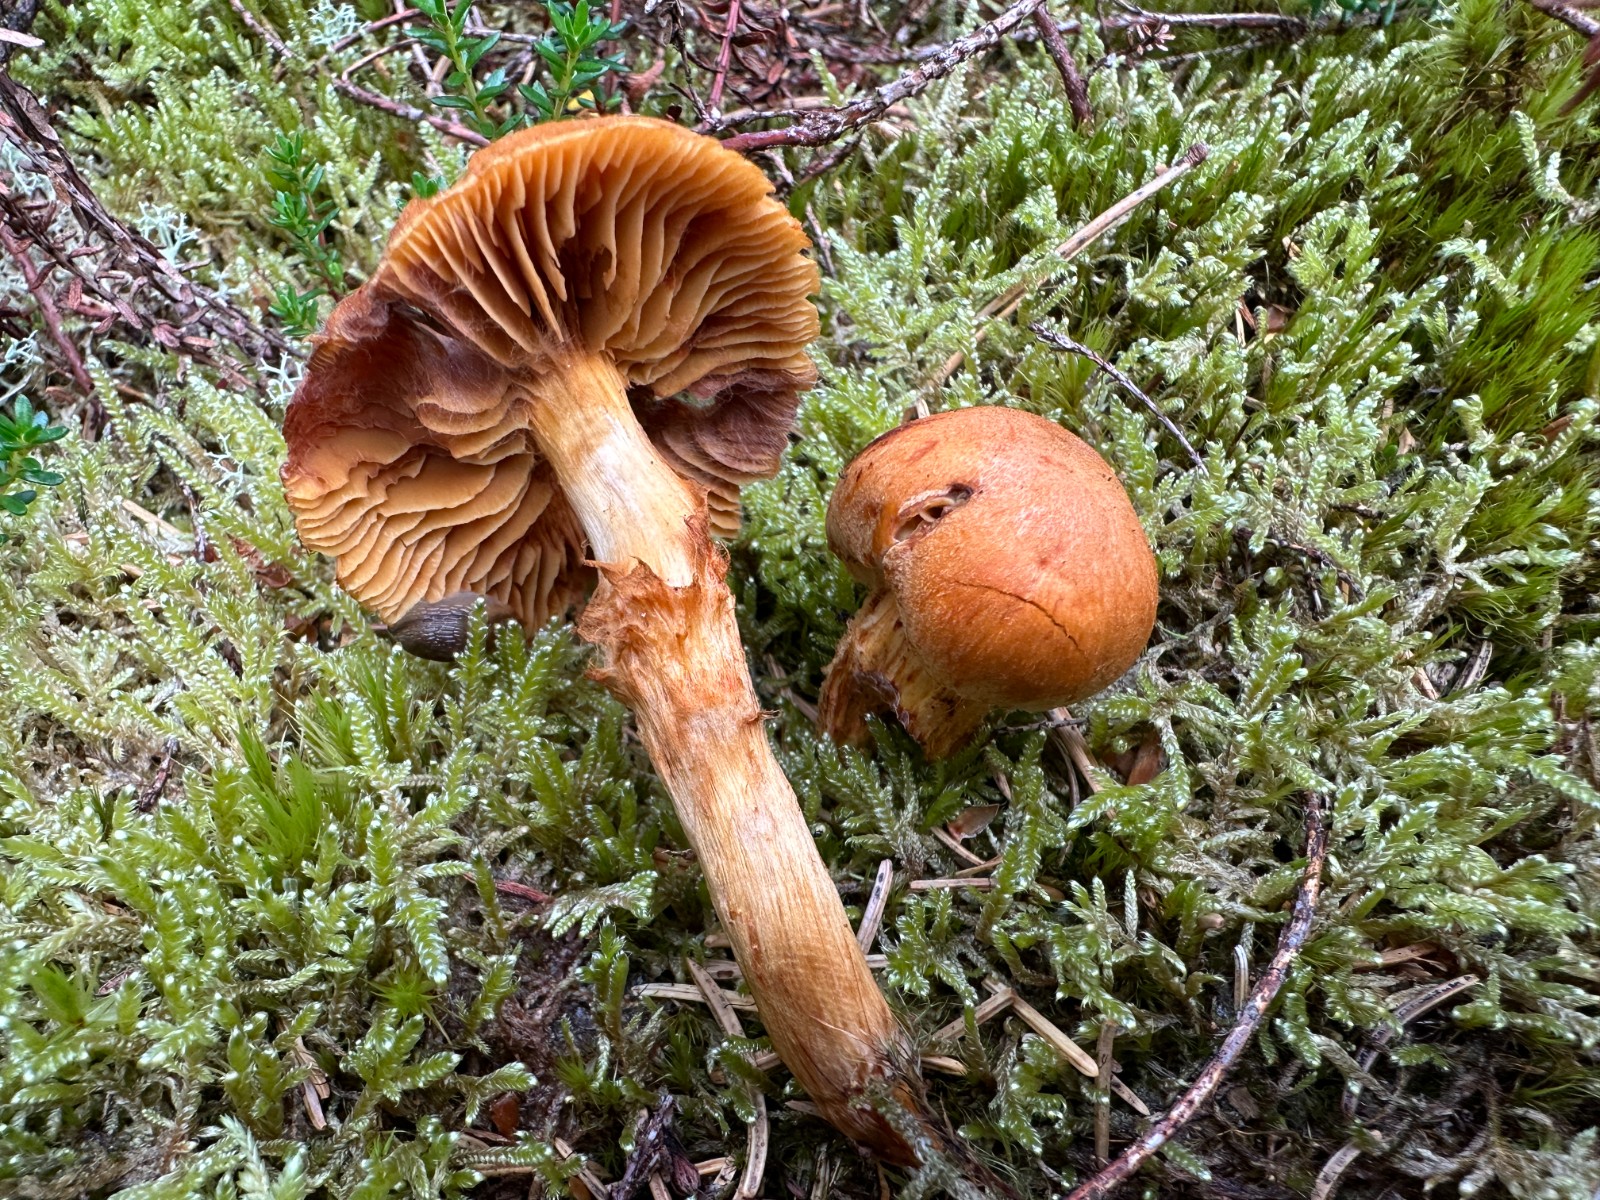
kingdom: Fungi
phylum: Basidiomycota
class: Agaricomycetes
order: Agaricales
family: Cortinariaceae
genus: Aureonarius
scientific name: Aureonarius limonius
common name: orangegul slørhat
